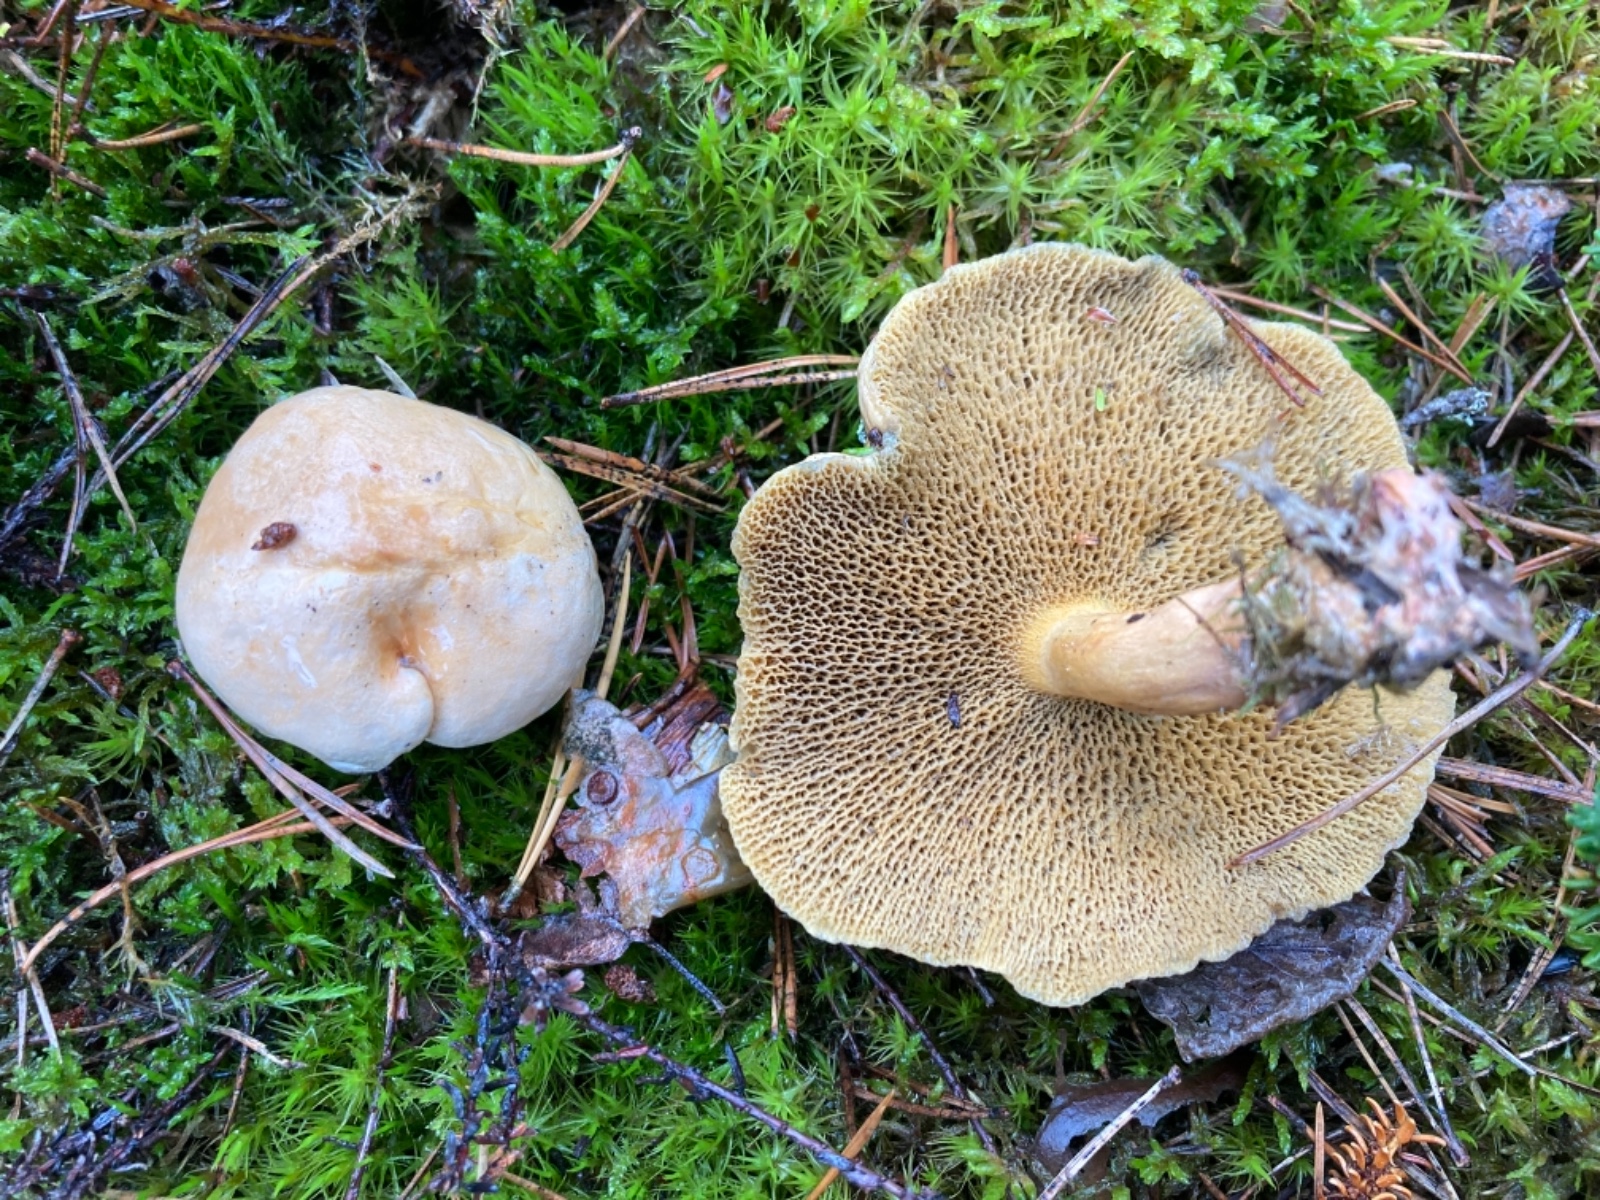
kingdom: Fungi
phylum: Basidiomycota
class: Agaricomycetes
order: Boletales
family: Suillaceae
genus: Suillus
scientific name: Suillus bovinus
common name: grovporet slimrørhat
